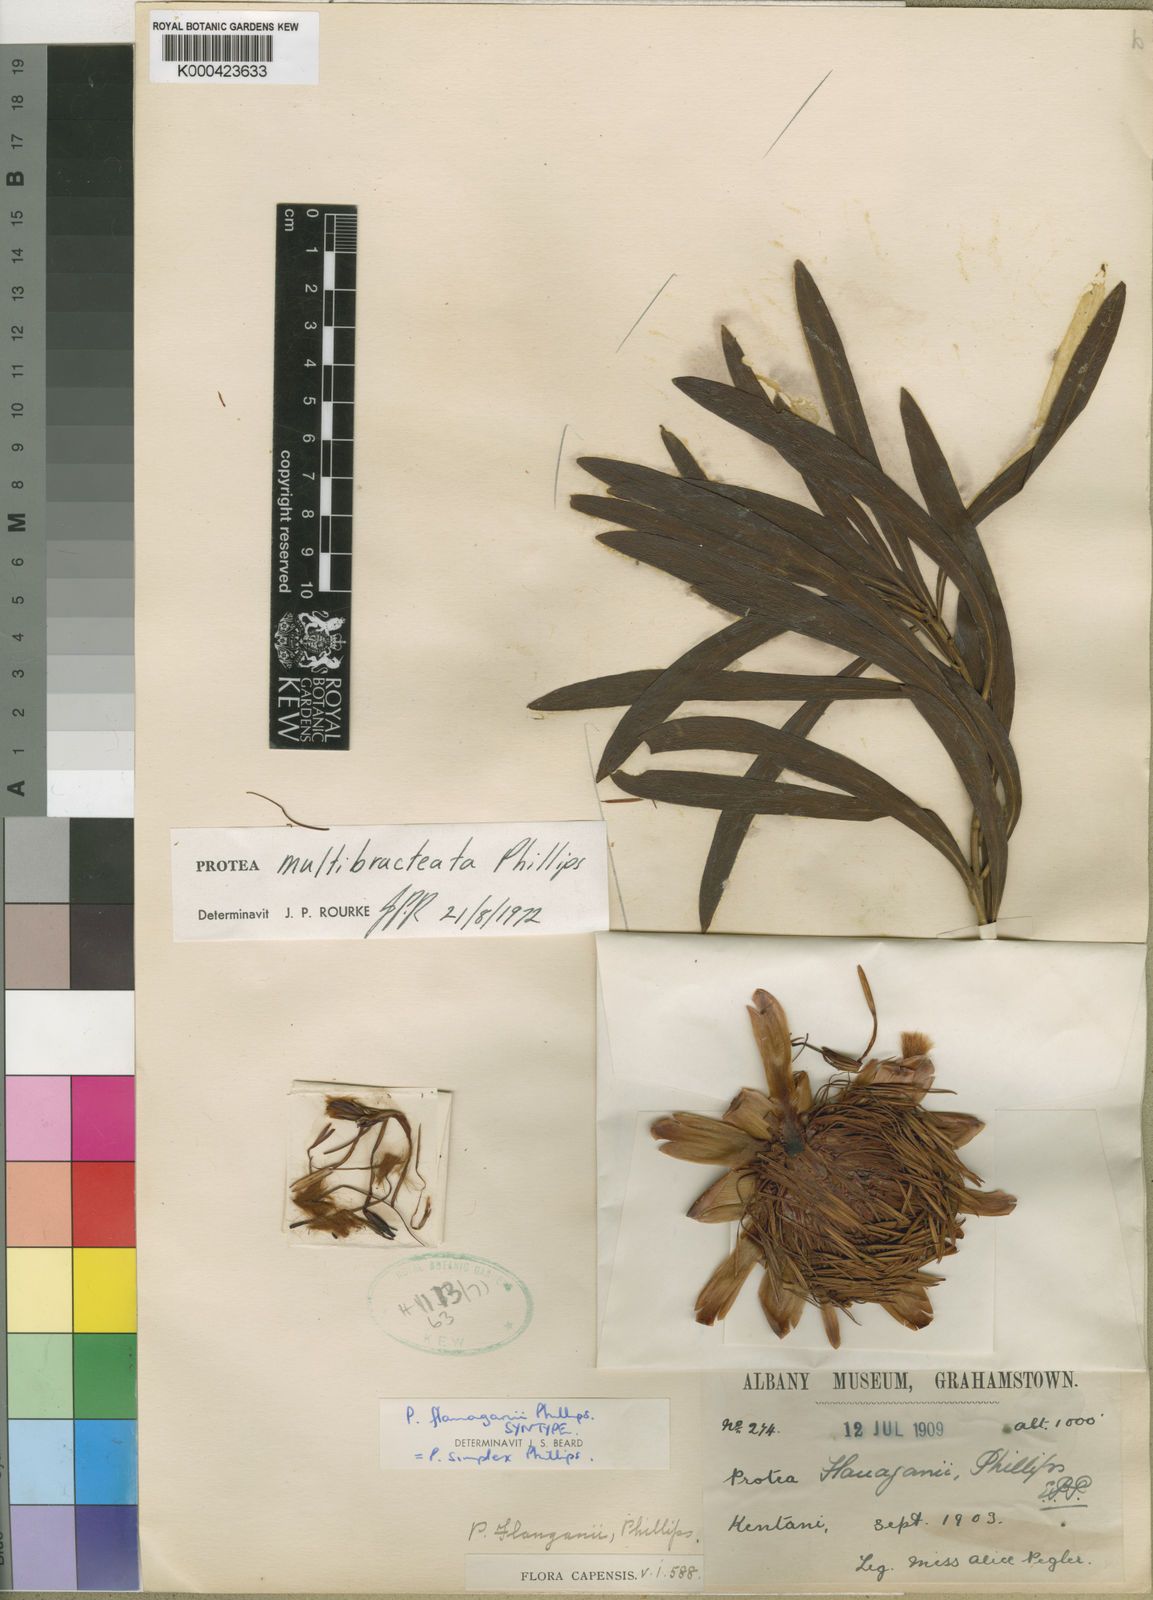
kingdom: Plantae
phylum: Tracheophyta
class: Magnoliopsida
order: Proteales
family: Proteaceae
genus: Protea
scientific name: Protea simplex
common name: Dwarf grassveld sugarbush
